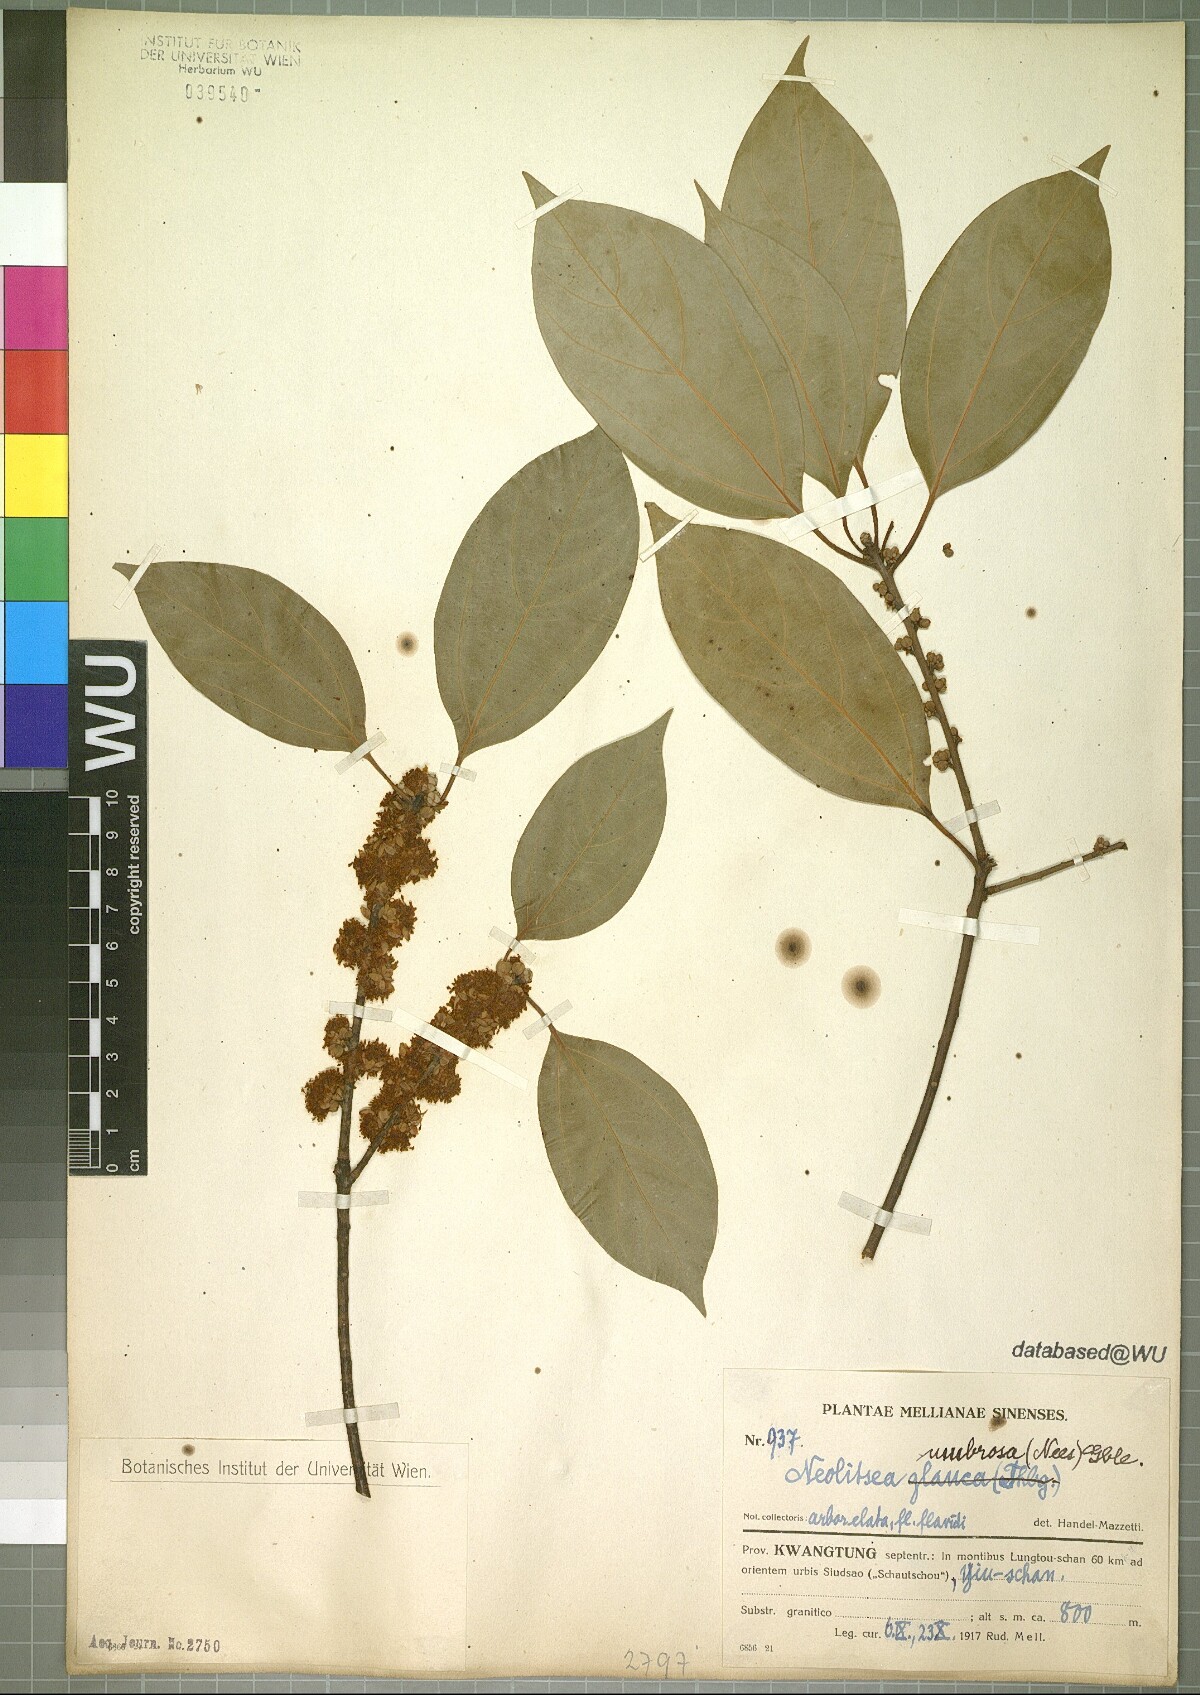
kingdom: Plantae
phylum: Tracheophyta
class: Magnoliopsida
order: Laurales
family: Lauraceae
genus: Neolitsea
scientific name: Neolitsea umbrosa
